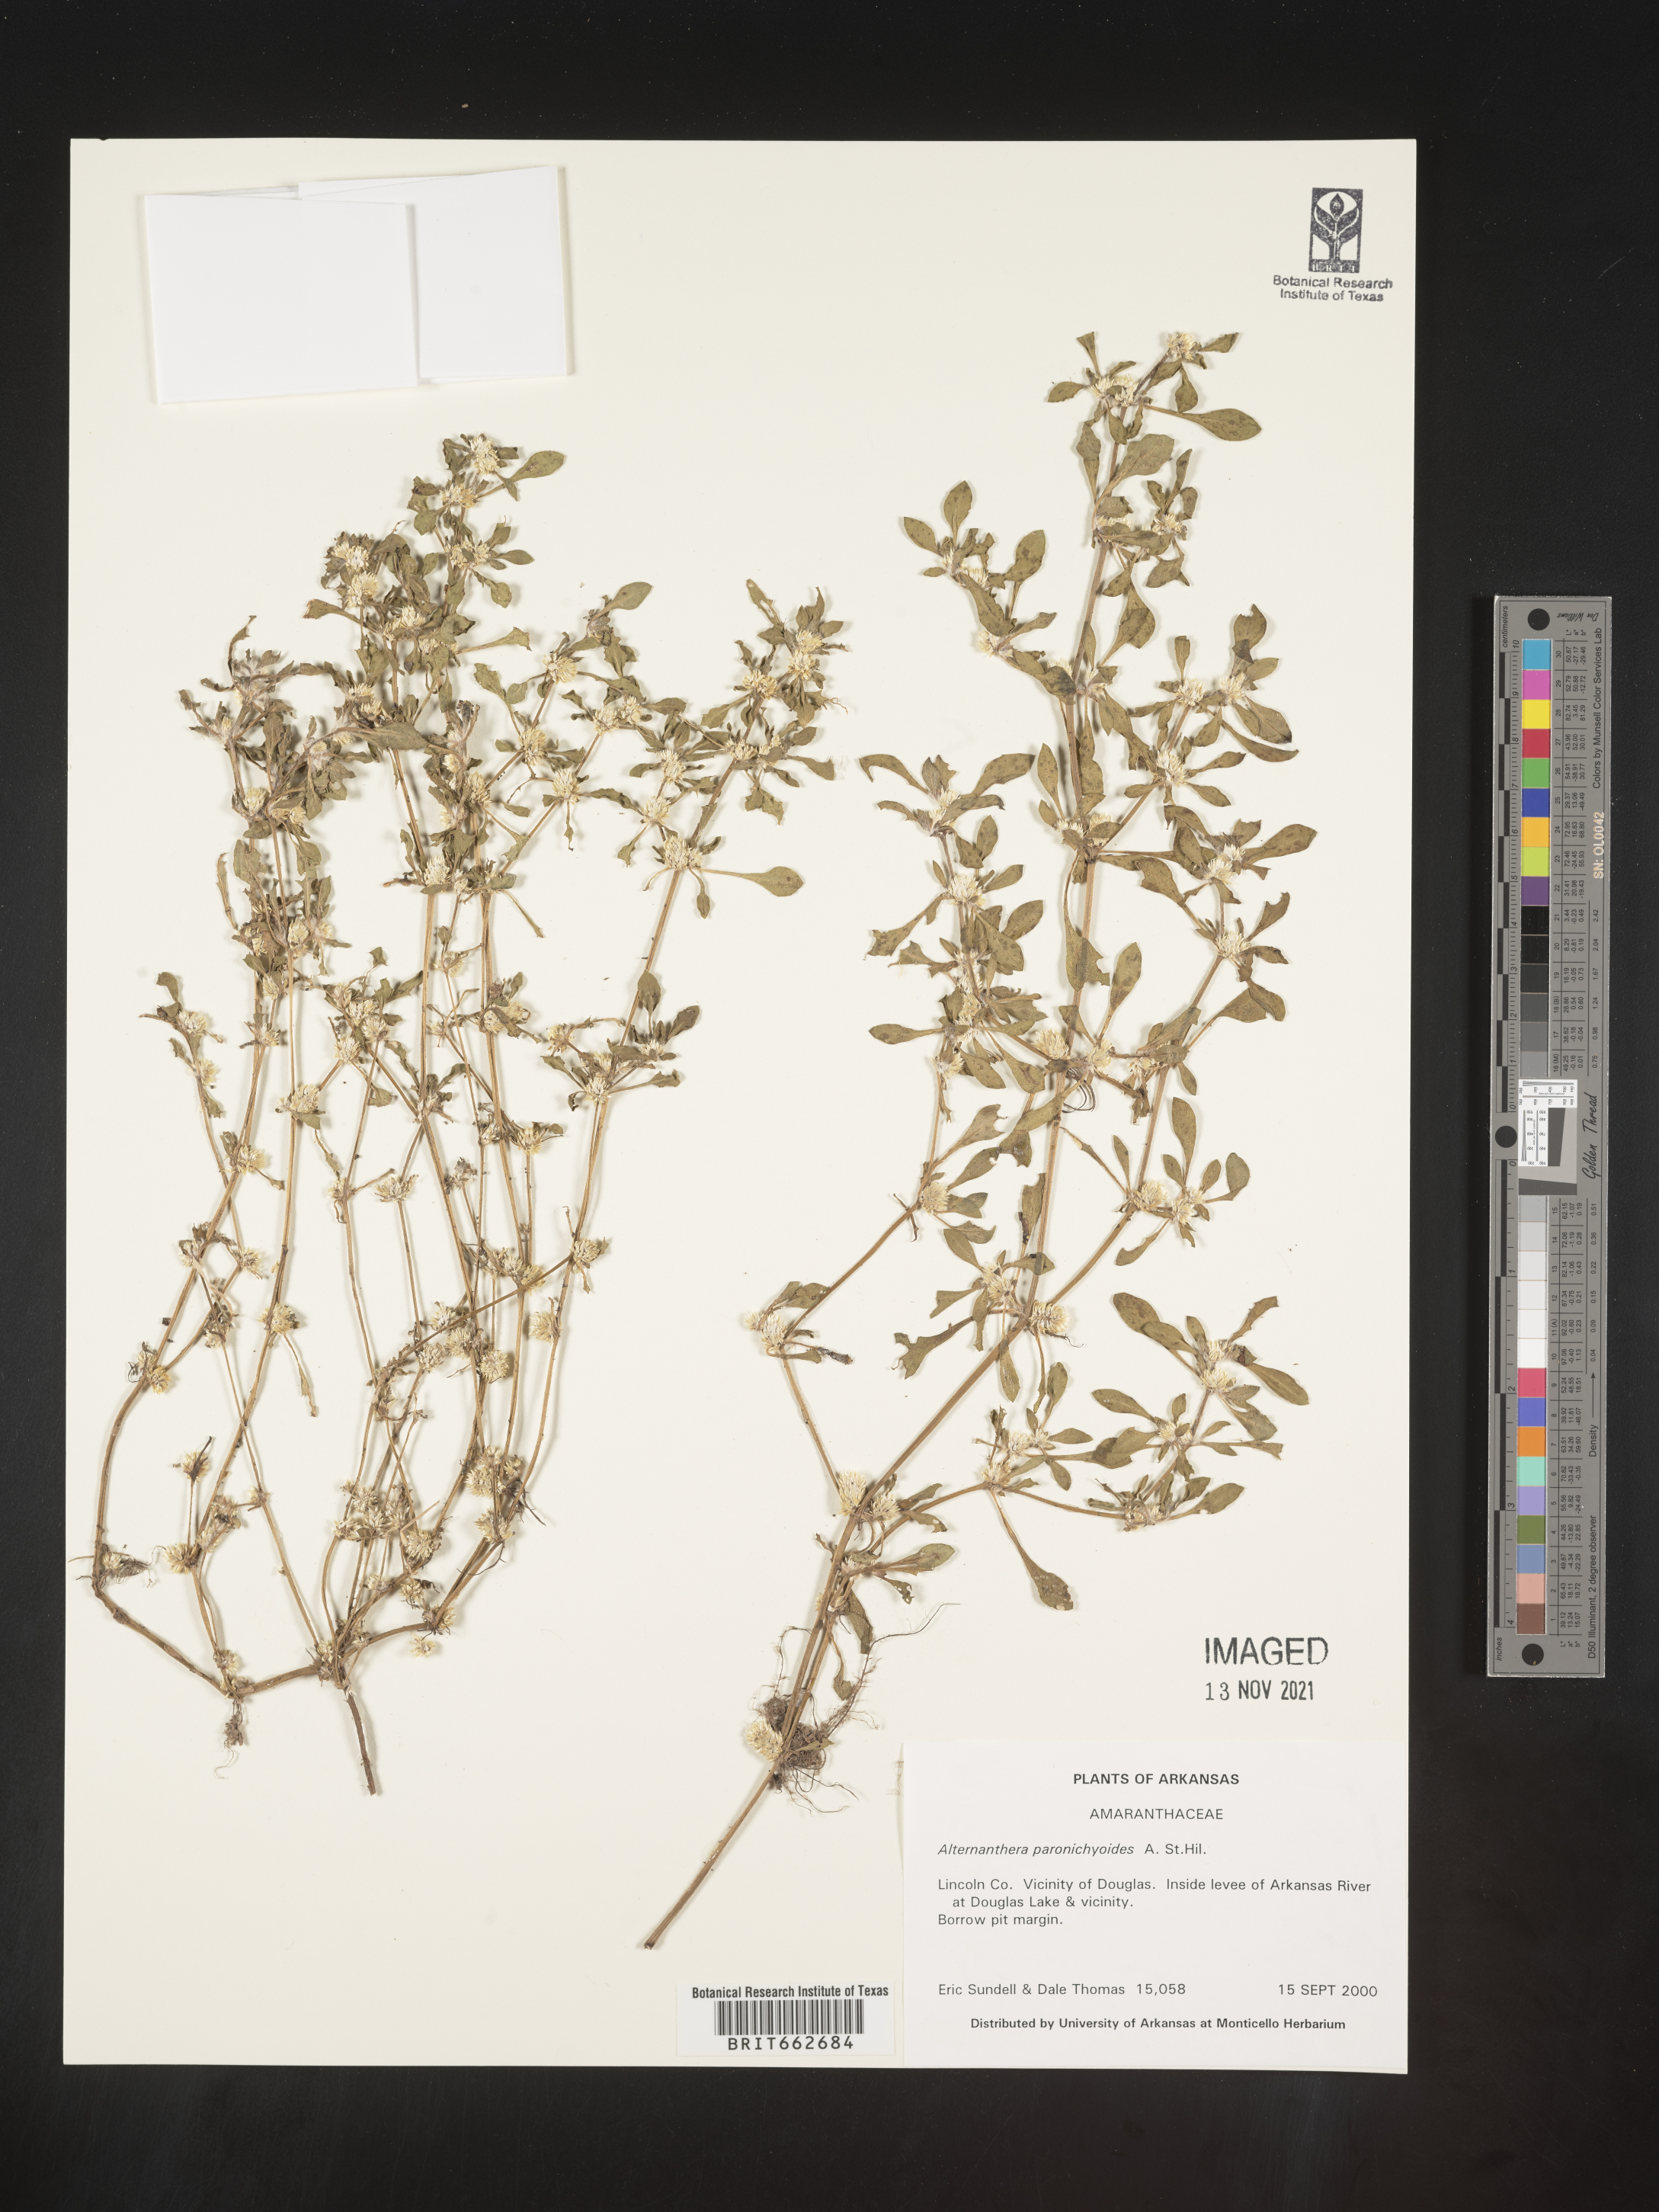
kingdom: Plantae
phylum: Tracheophyta
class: Magnoliopsida
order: Caryophyllales
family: Amaranthaceae
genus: Alternanthera
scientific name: Alternanthera paronychioides
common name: Smooth joyweed
